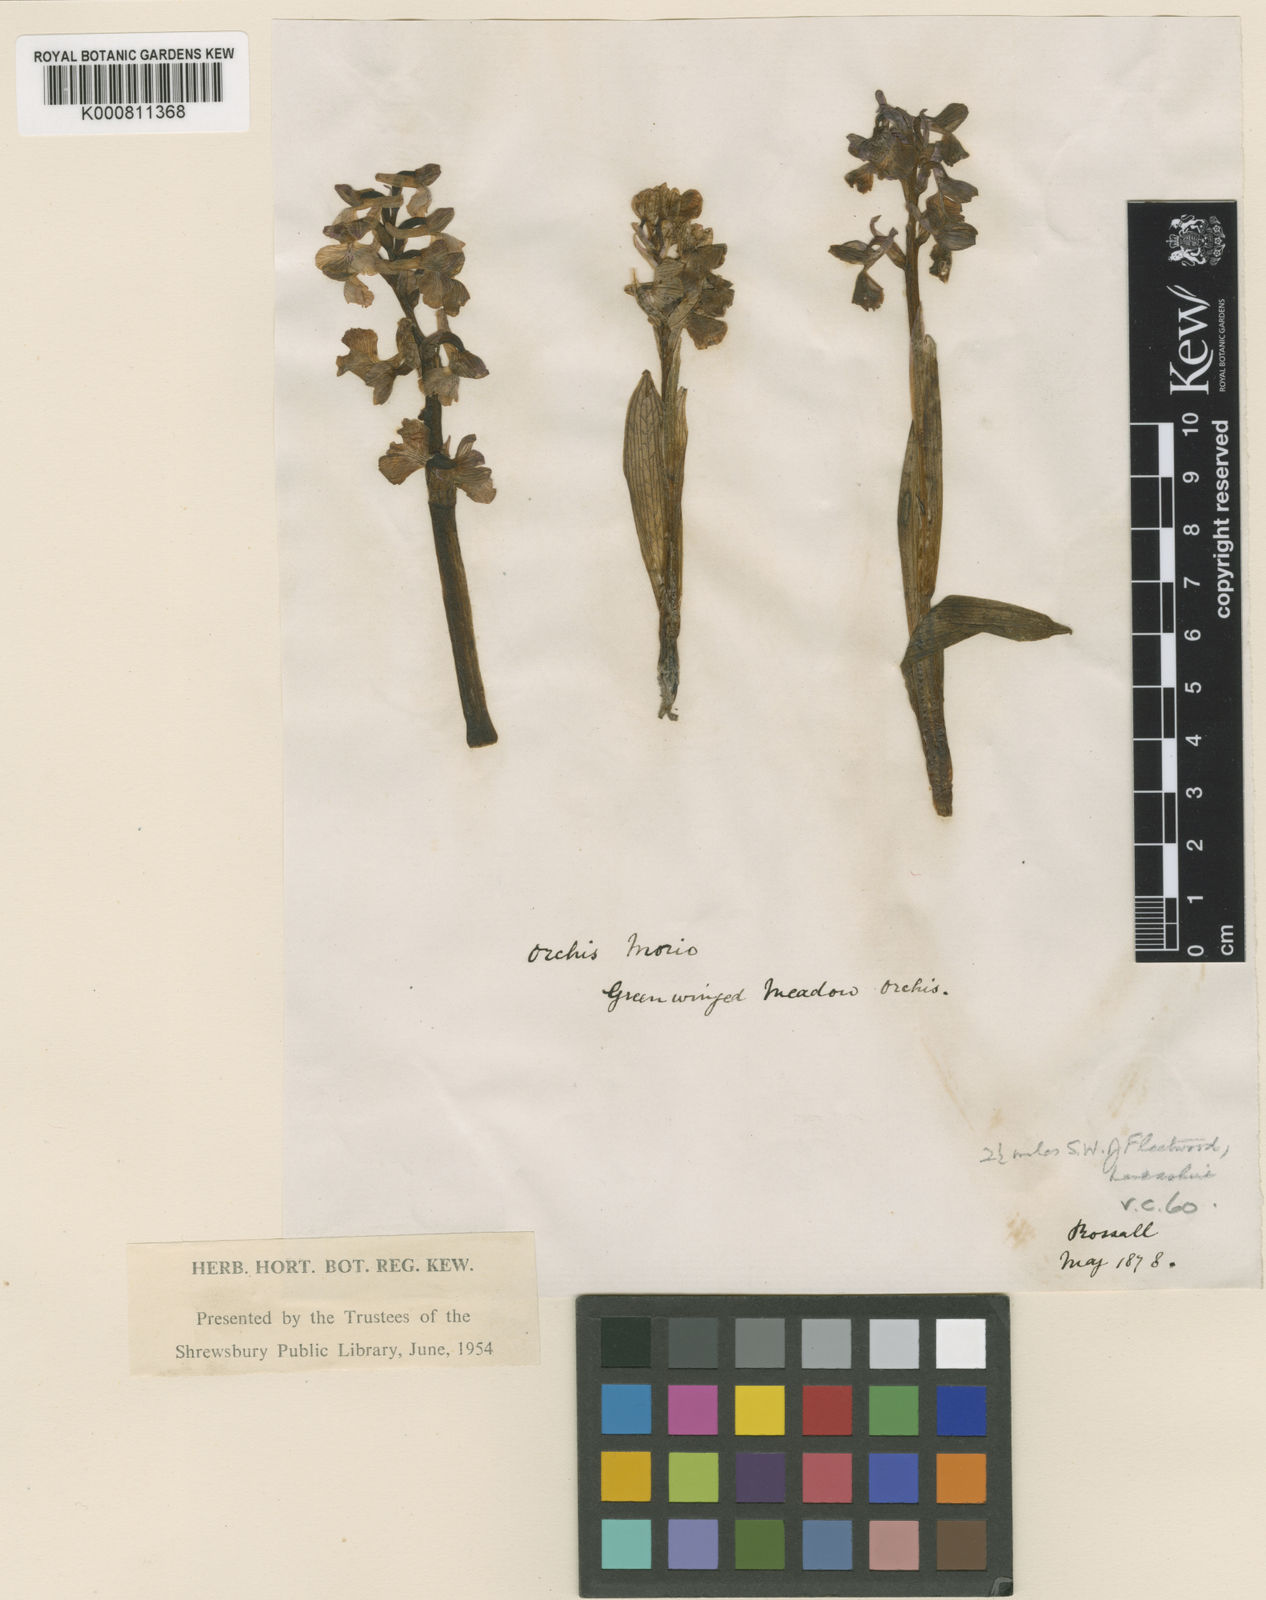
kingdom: Plantae
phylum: Tracheophyta
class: Liliopsida
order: Asparagales
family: Orchidaceae
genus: Anacamptis
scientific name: Anacamptis morio
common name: Green-winged orchid
